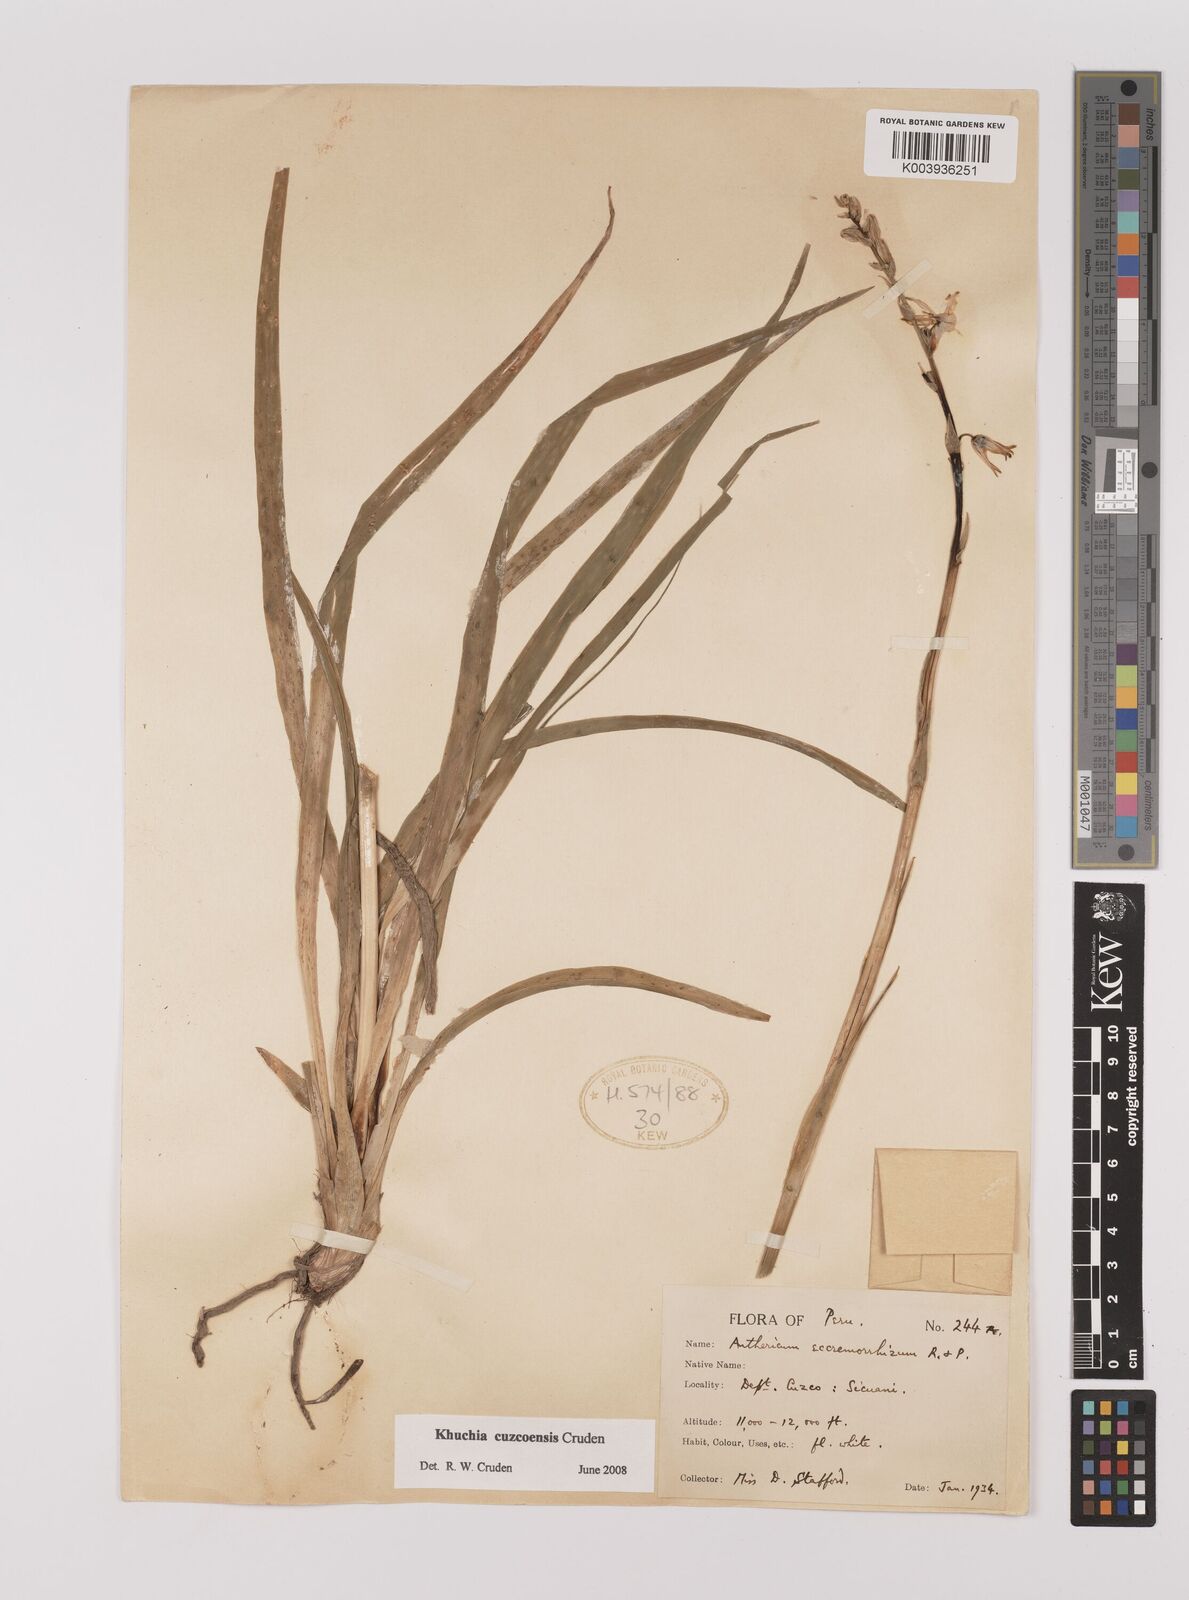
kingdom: Plantae
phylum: Tracheophyta
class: Liliopsida
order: Asparagales
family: Asparagaceae
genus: Echeandia
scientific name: Echeandia
